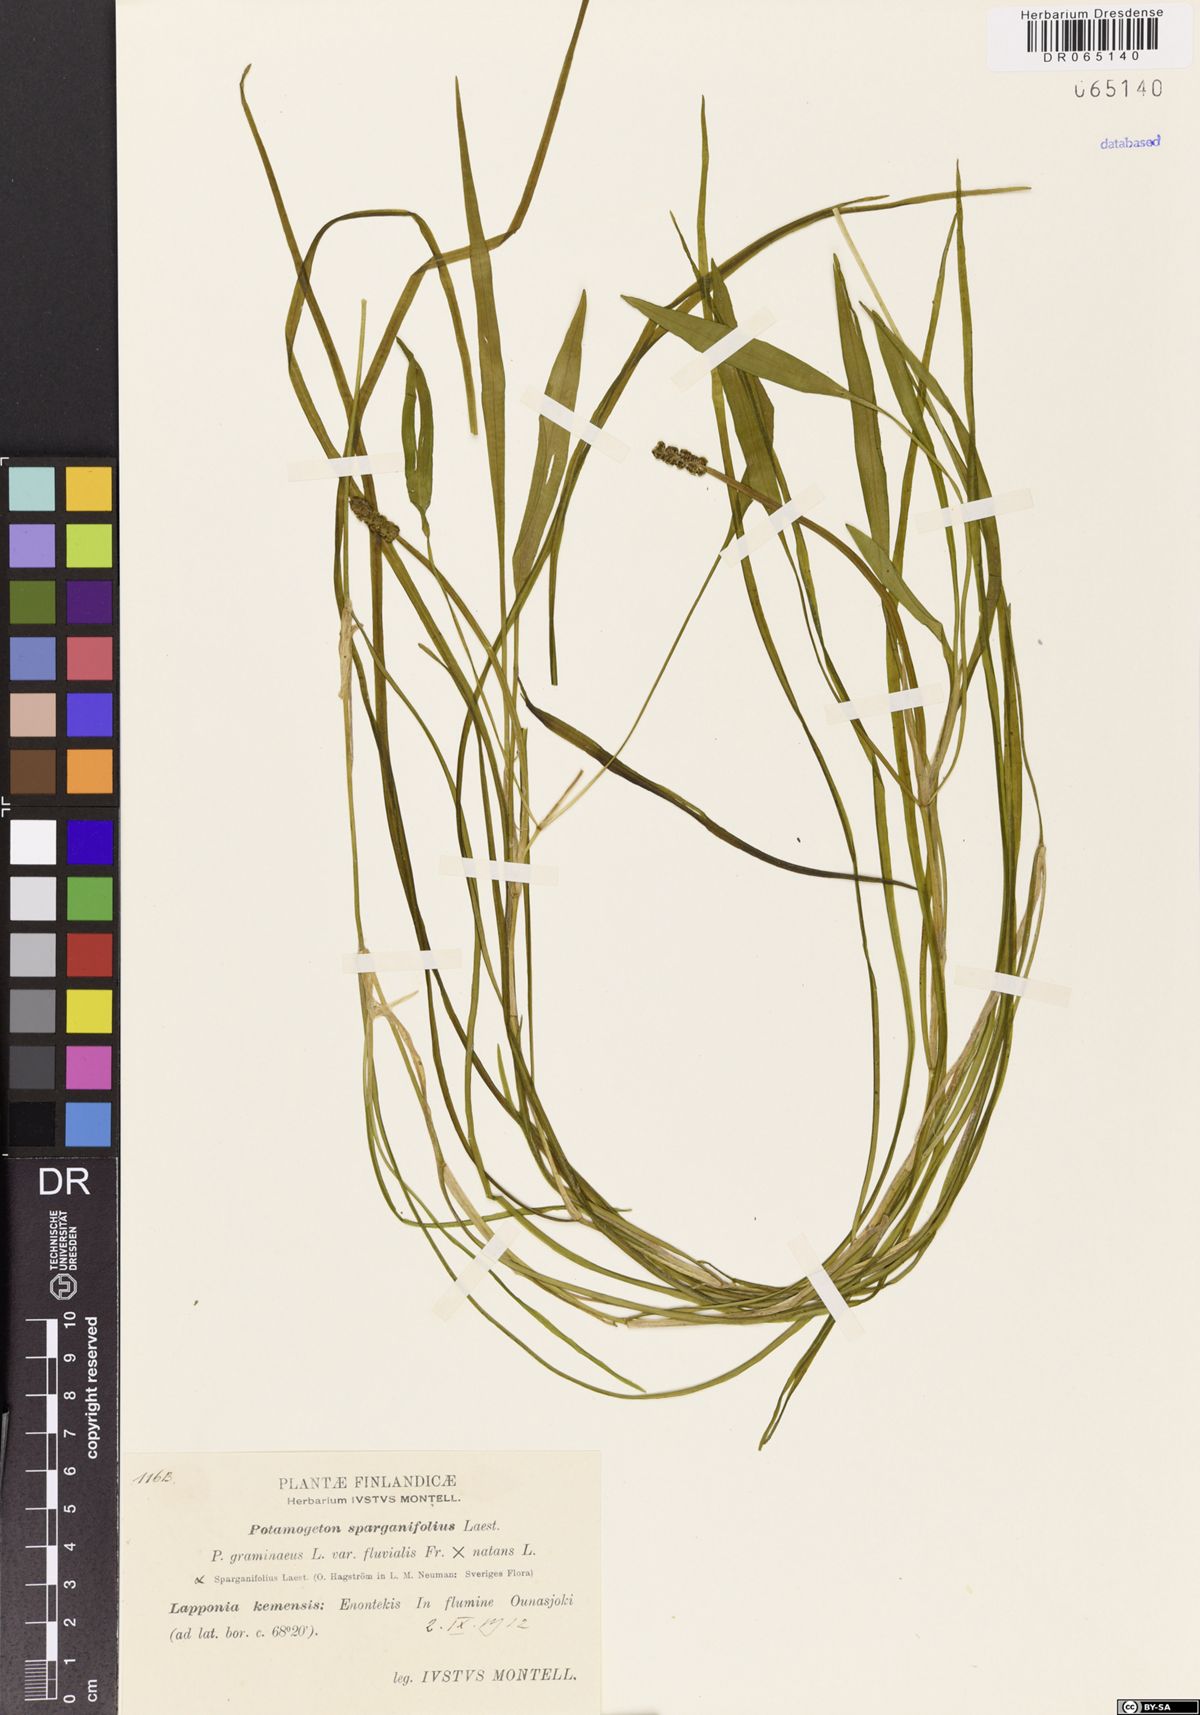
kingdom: Plantae
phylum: Tracheophyta
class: Liliopsida
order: Alismatales
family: Potamogetonaceae
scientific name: Potamogetonaceae
